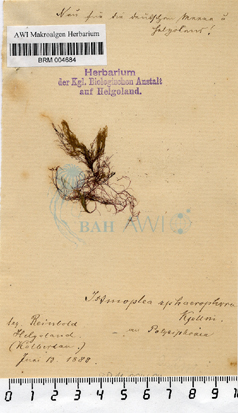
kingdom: Chromista
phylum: Ochrophyta
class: Phaeophyceae
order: Ectocarpales
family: Chordariaceae
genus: Isthmoplea
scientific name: Isthmoplea sphaerophora
